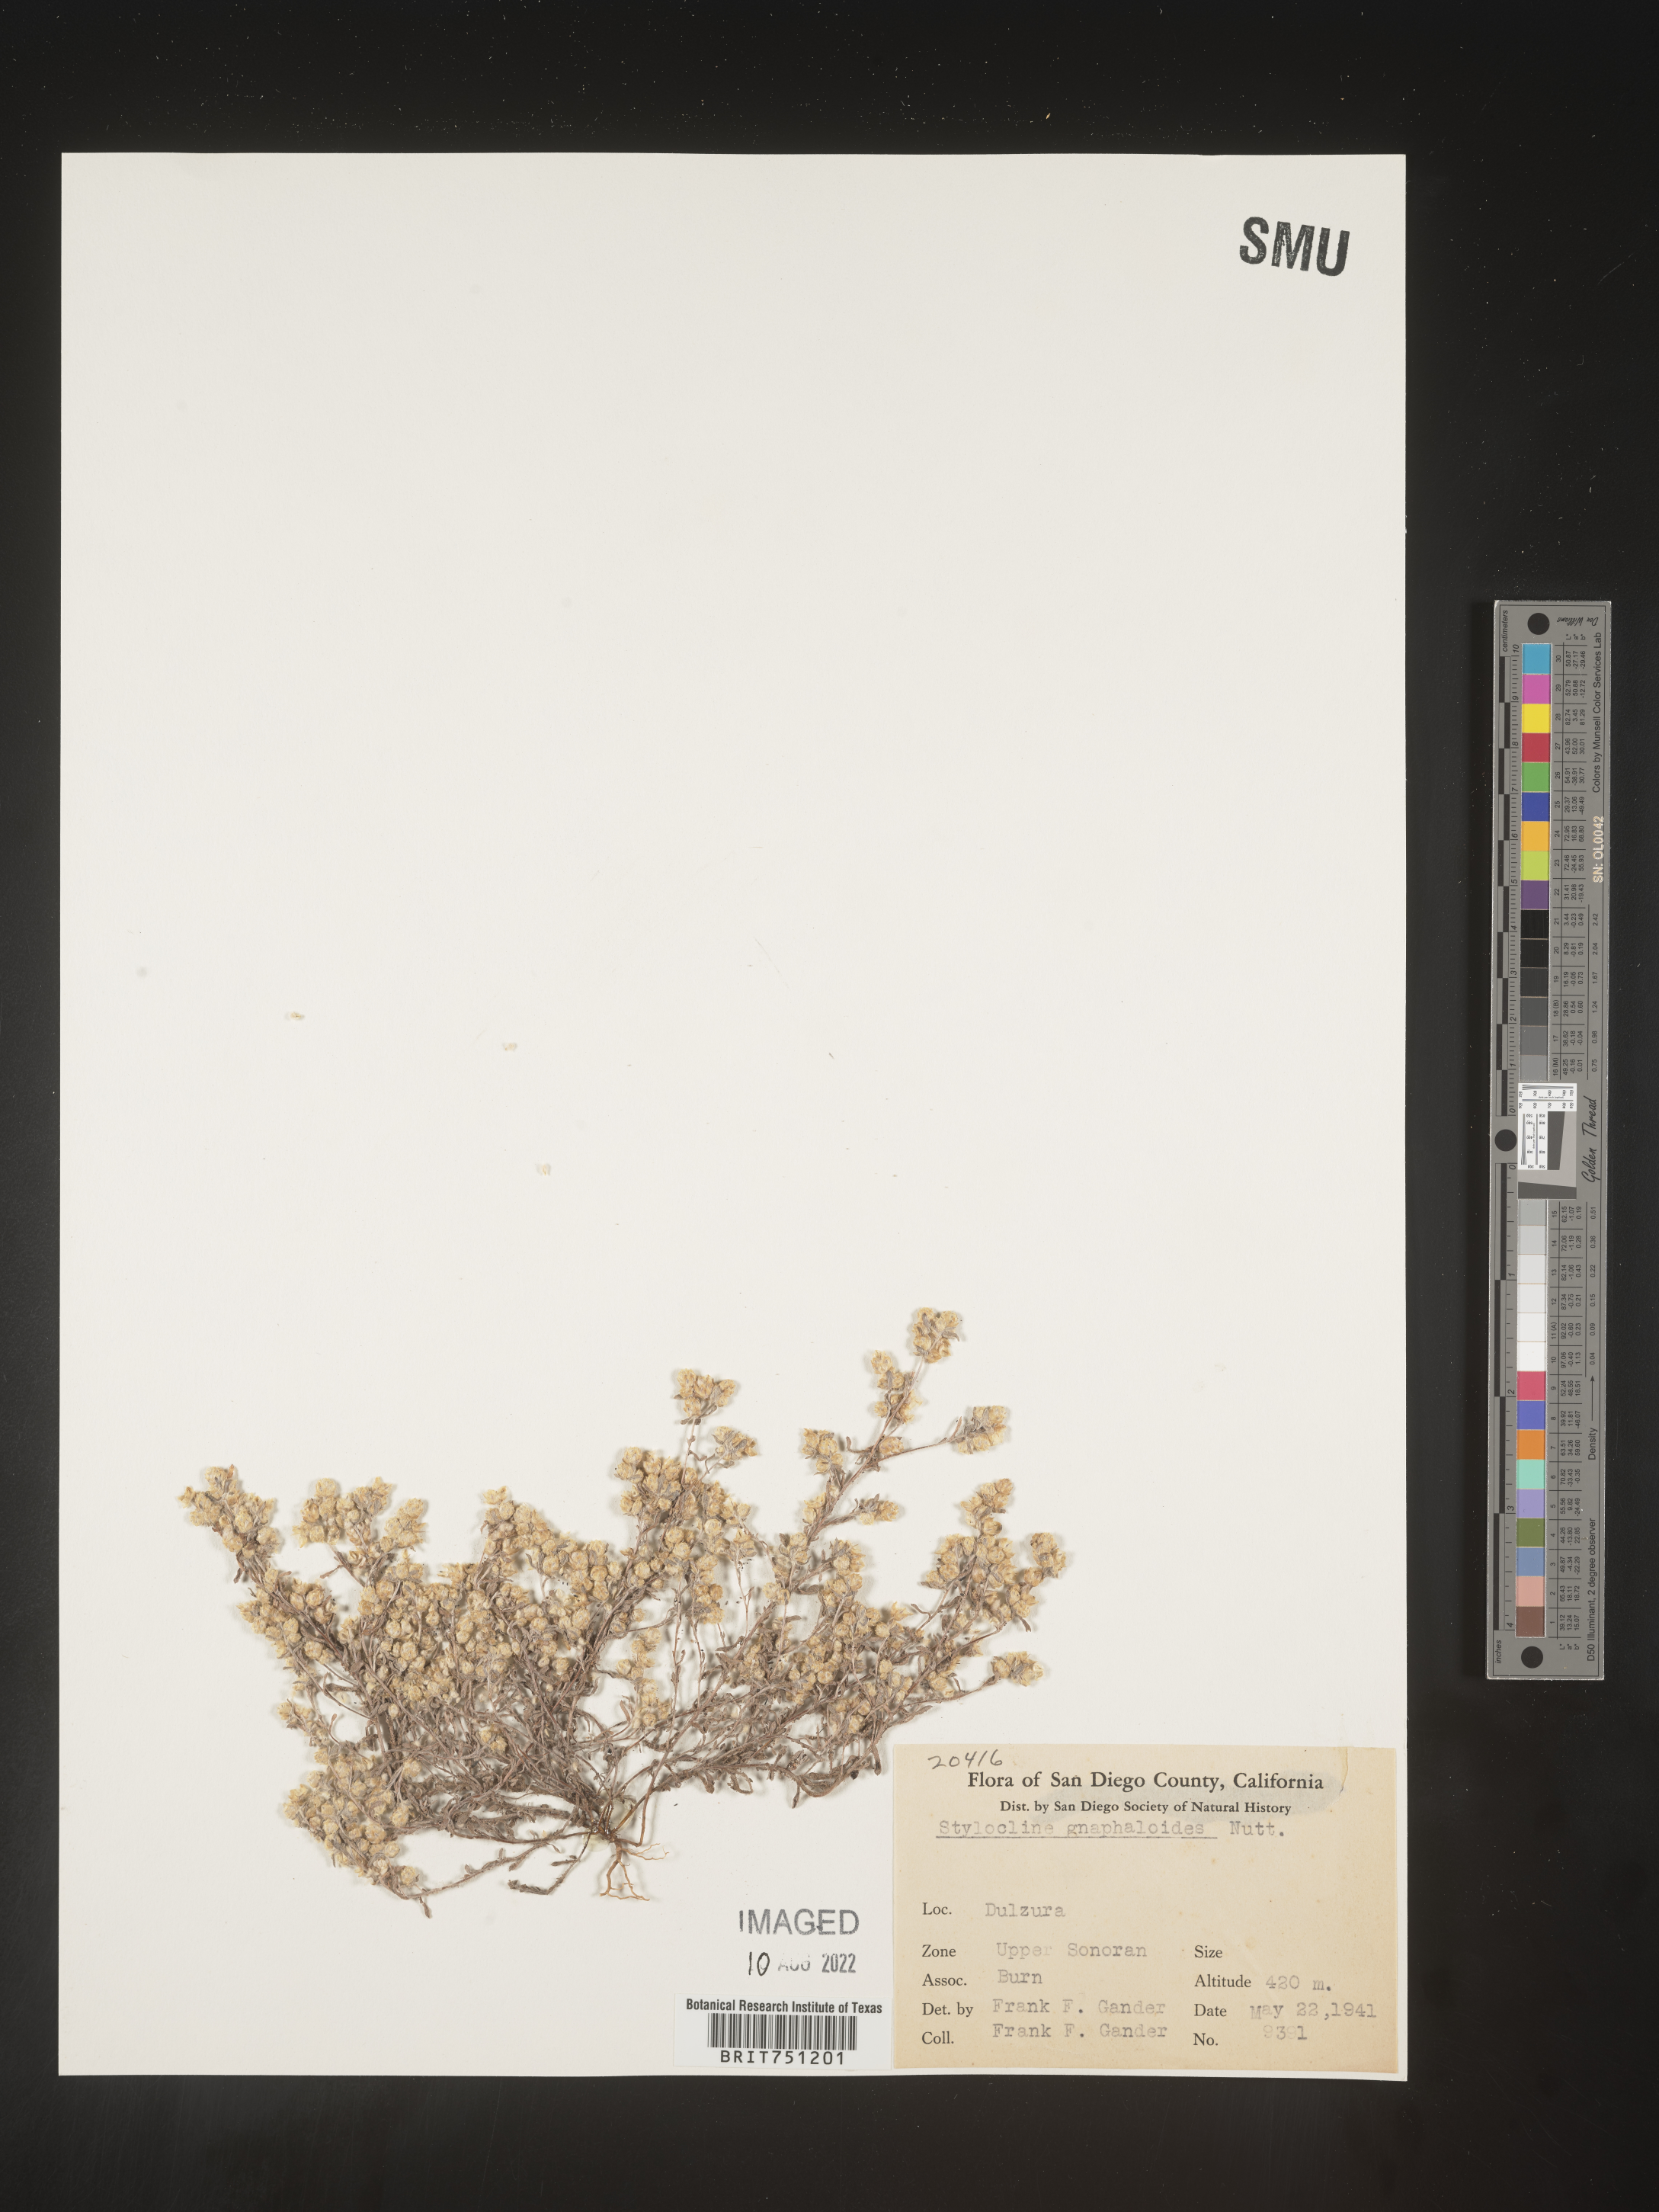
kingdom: Plantae
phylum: Tracheophyta
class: Magnoliopsida
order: Asterales
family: Asteraceae
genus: Stylocline
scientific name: Stylocline
